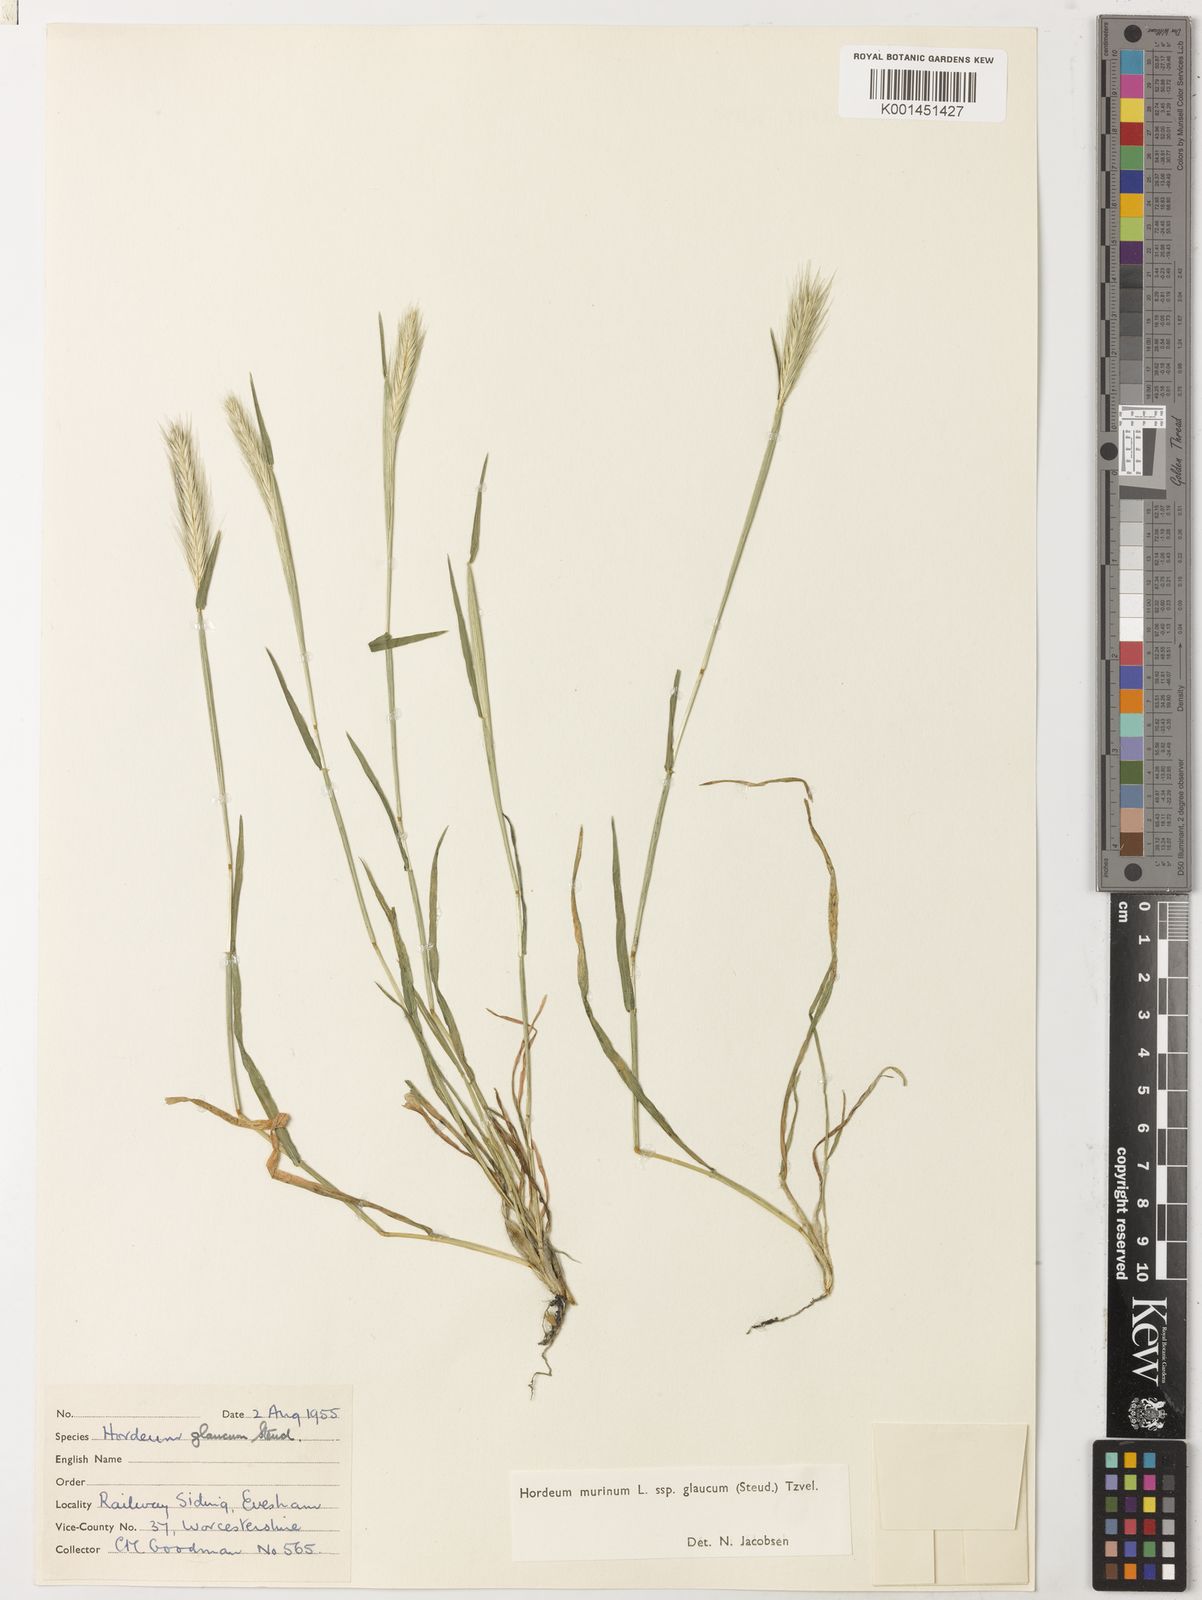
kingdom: Plantae
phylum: Tracheophyta
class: Liliopsida
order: Poales
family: Poaceae
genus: Hordeum
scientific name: Hordeum murinum
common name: Wall barley
